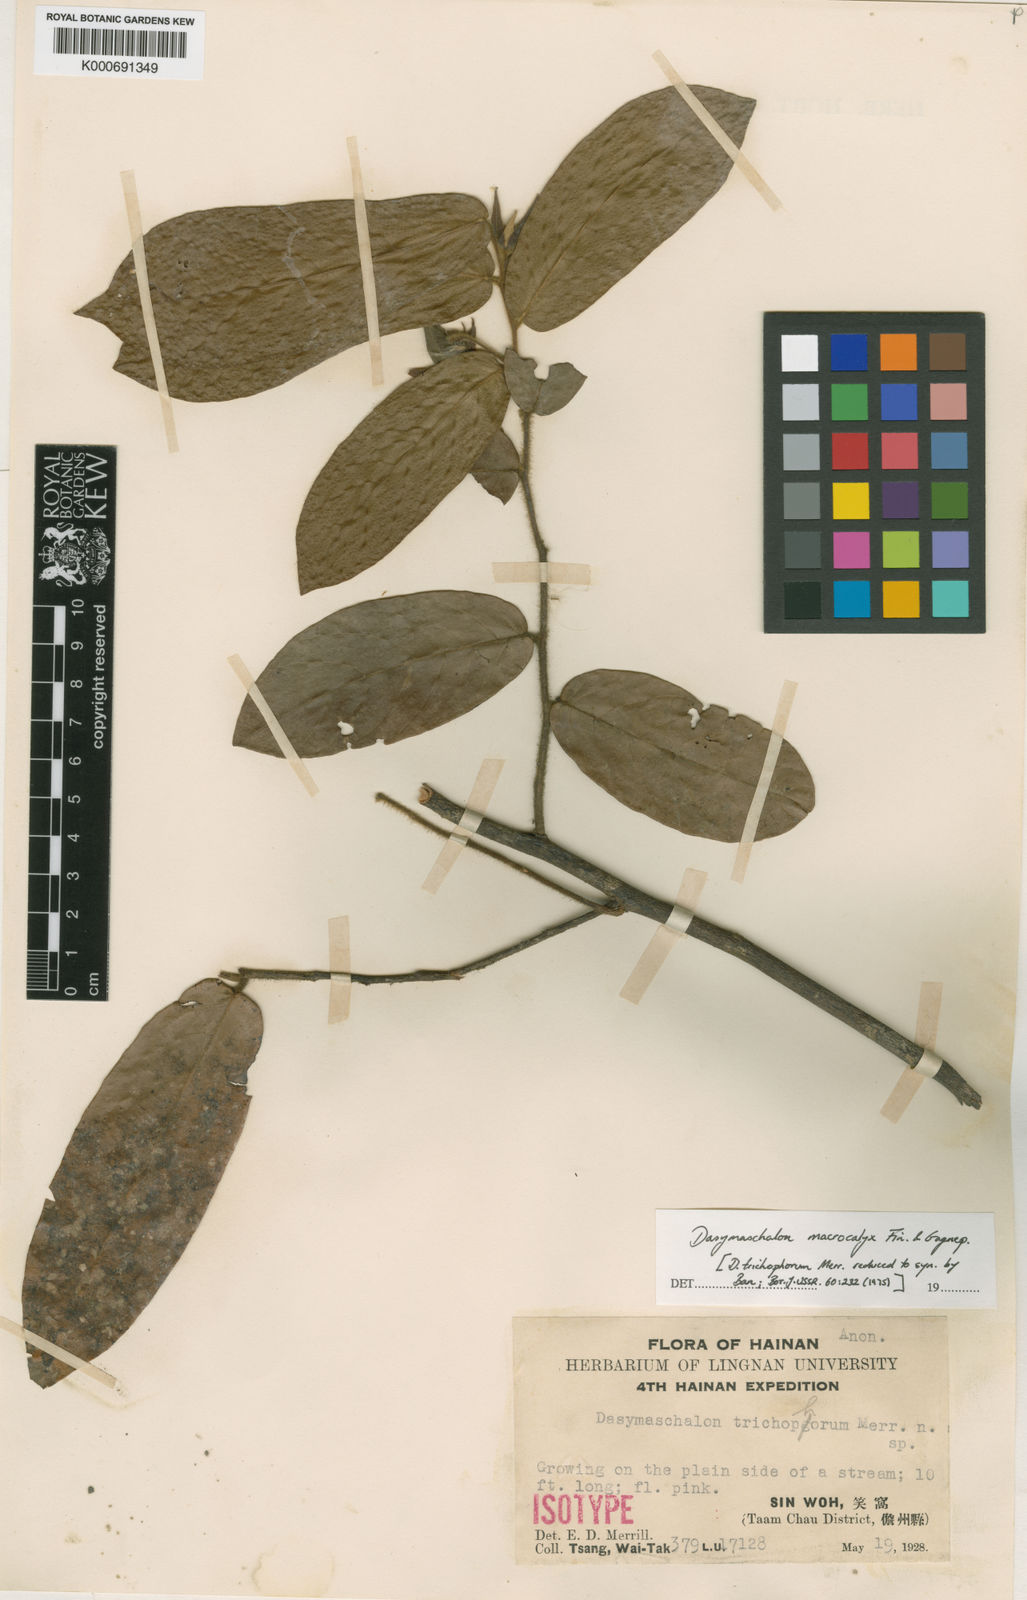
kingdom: Plantae
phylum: Tracheophyta
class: Magnoliopsida
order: Magnoliales
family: Annonaceae
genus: Desmos
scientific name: Desmos macrocalyx
